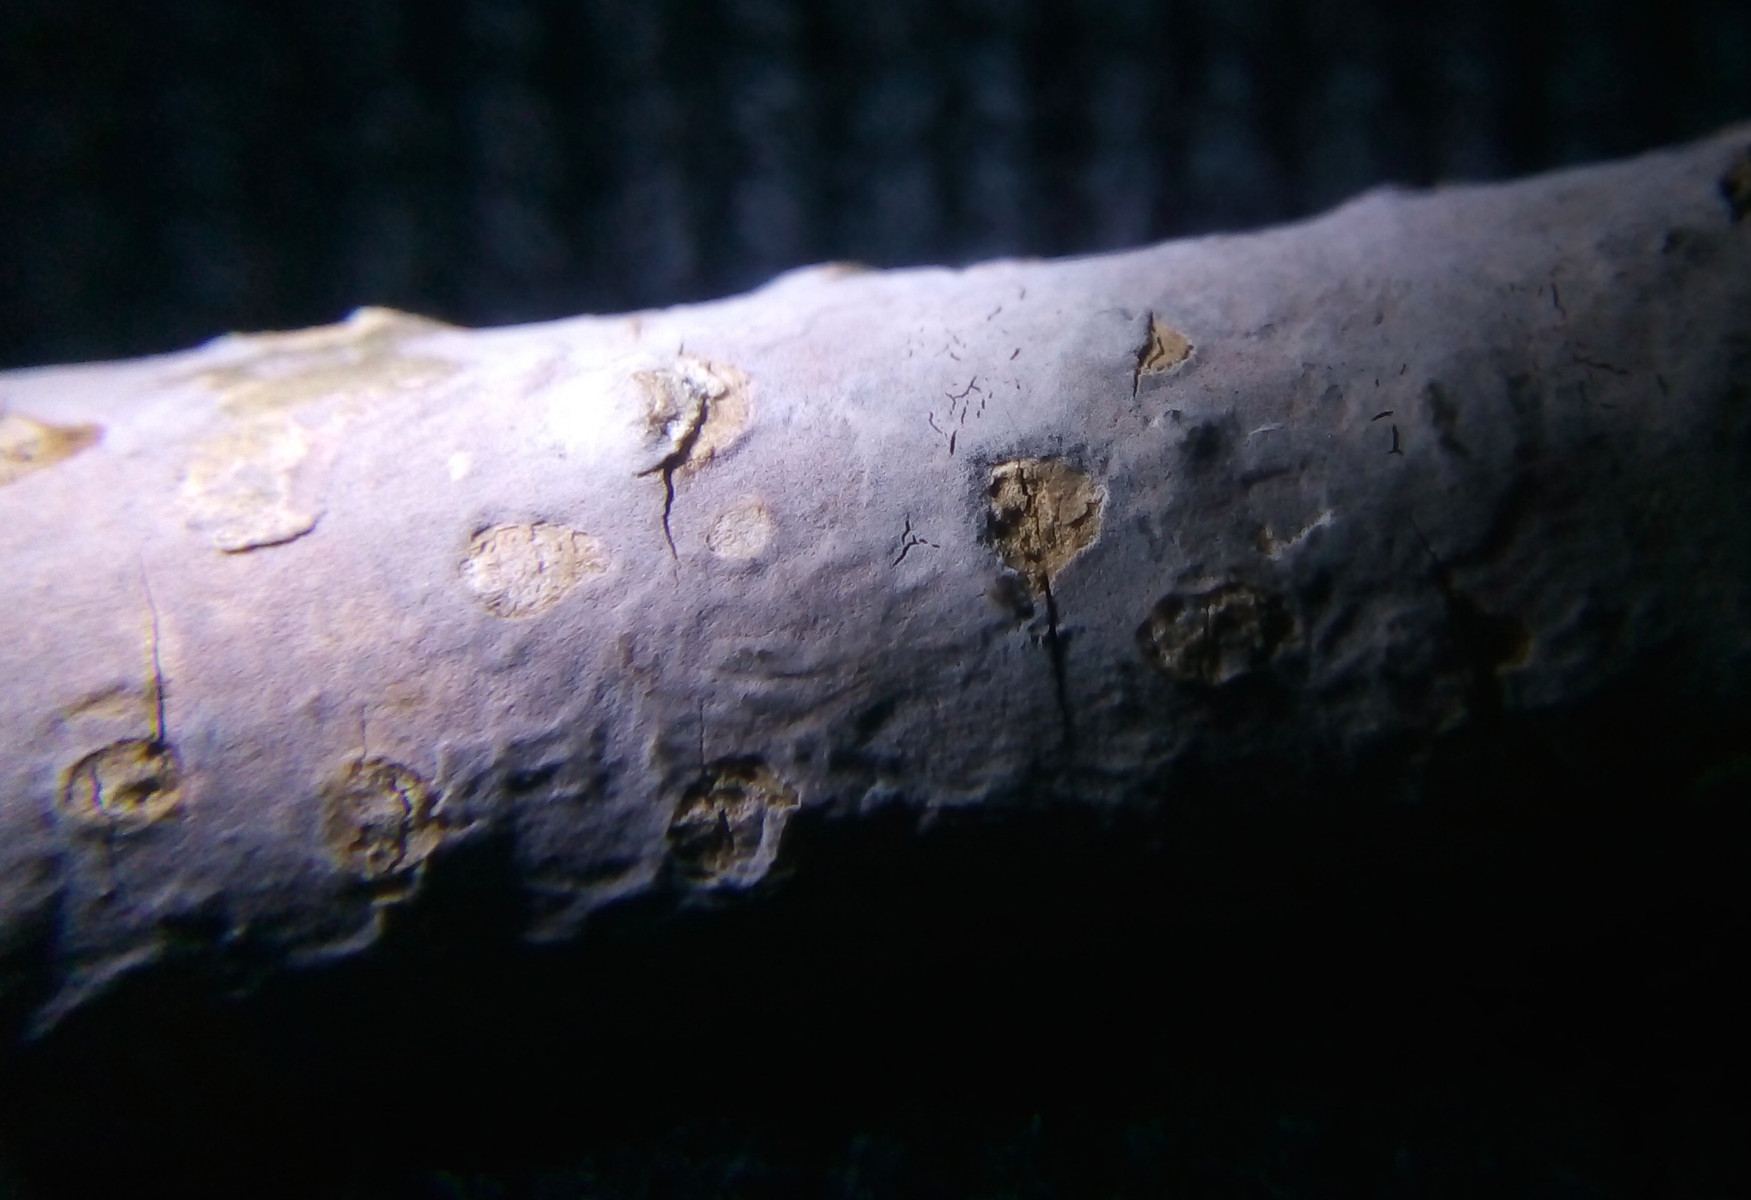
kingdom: Fungi
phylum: Basidiomycota
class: Agaricomycetes
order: Russulales
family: Peniophoraceae
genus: Peniophora
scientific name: Peniophora lycii
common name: grynet voksskind
